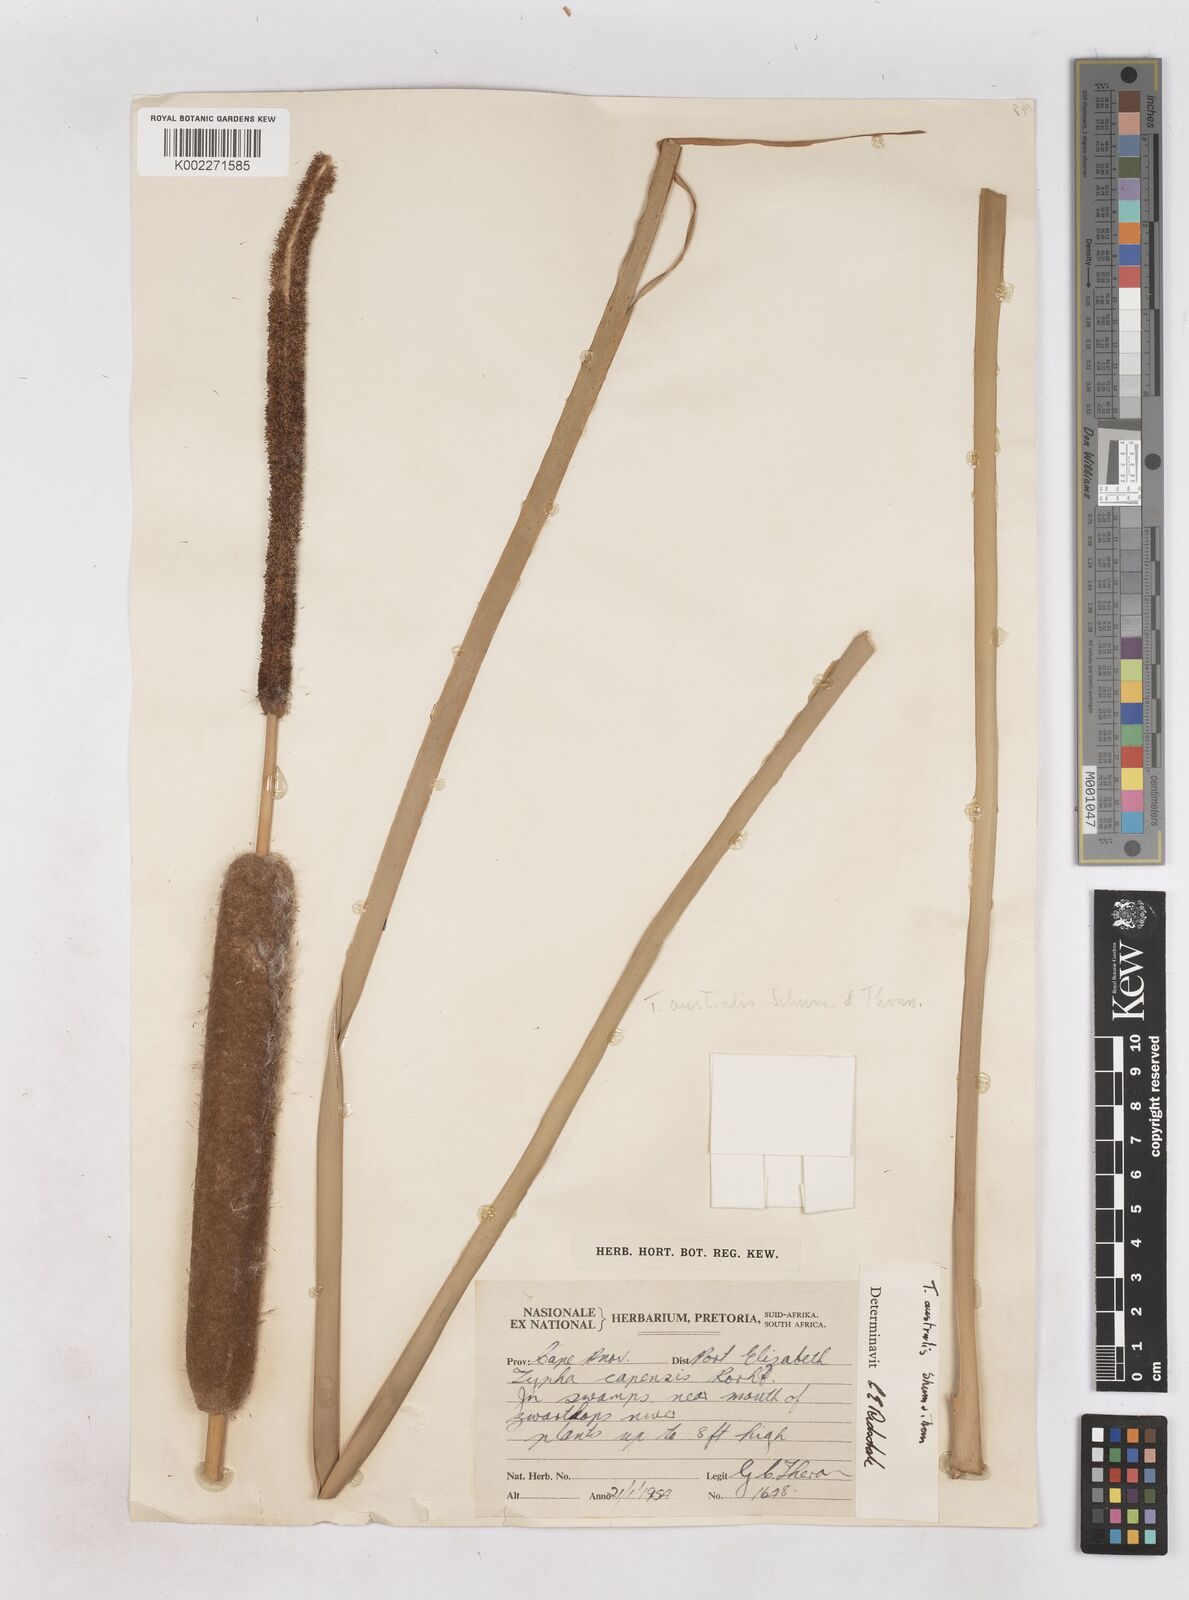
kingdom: Plantae
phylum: Tracheophyta
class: Liliopsida
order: Poales
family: Typhaceae
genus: Typha
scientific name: Typha domingensis
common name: Southern cattail
